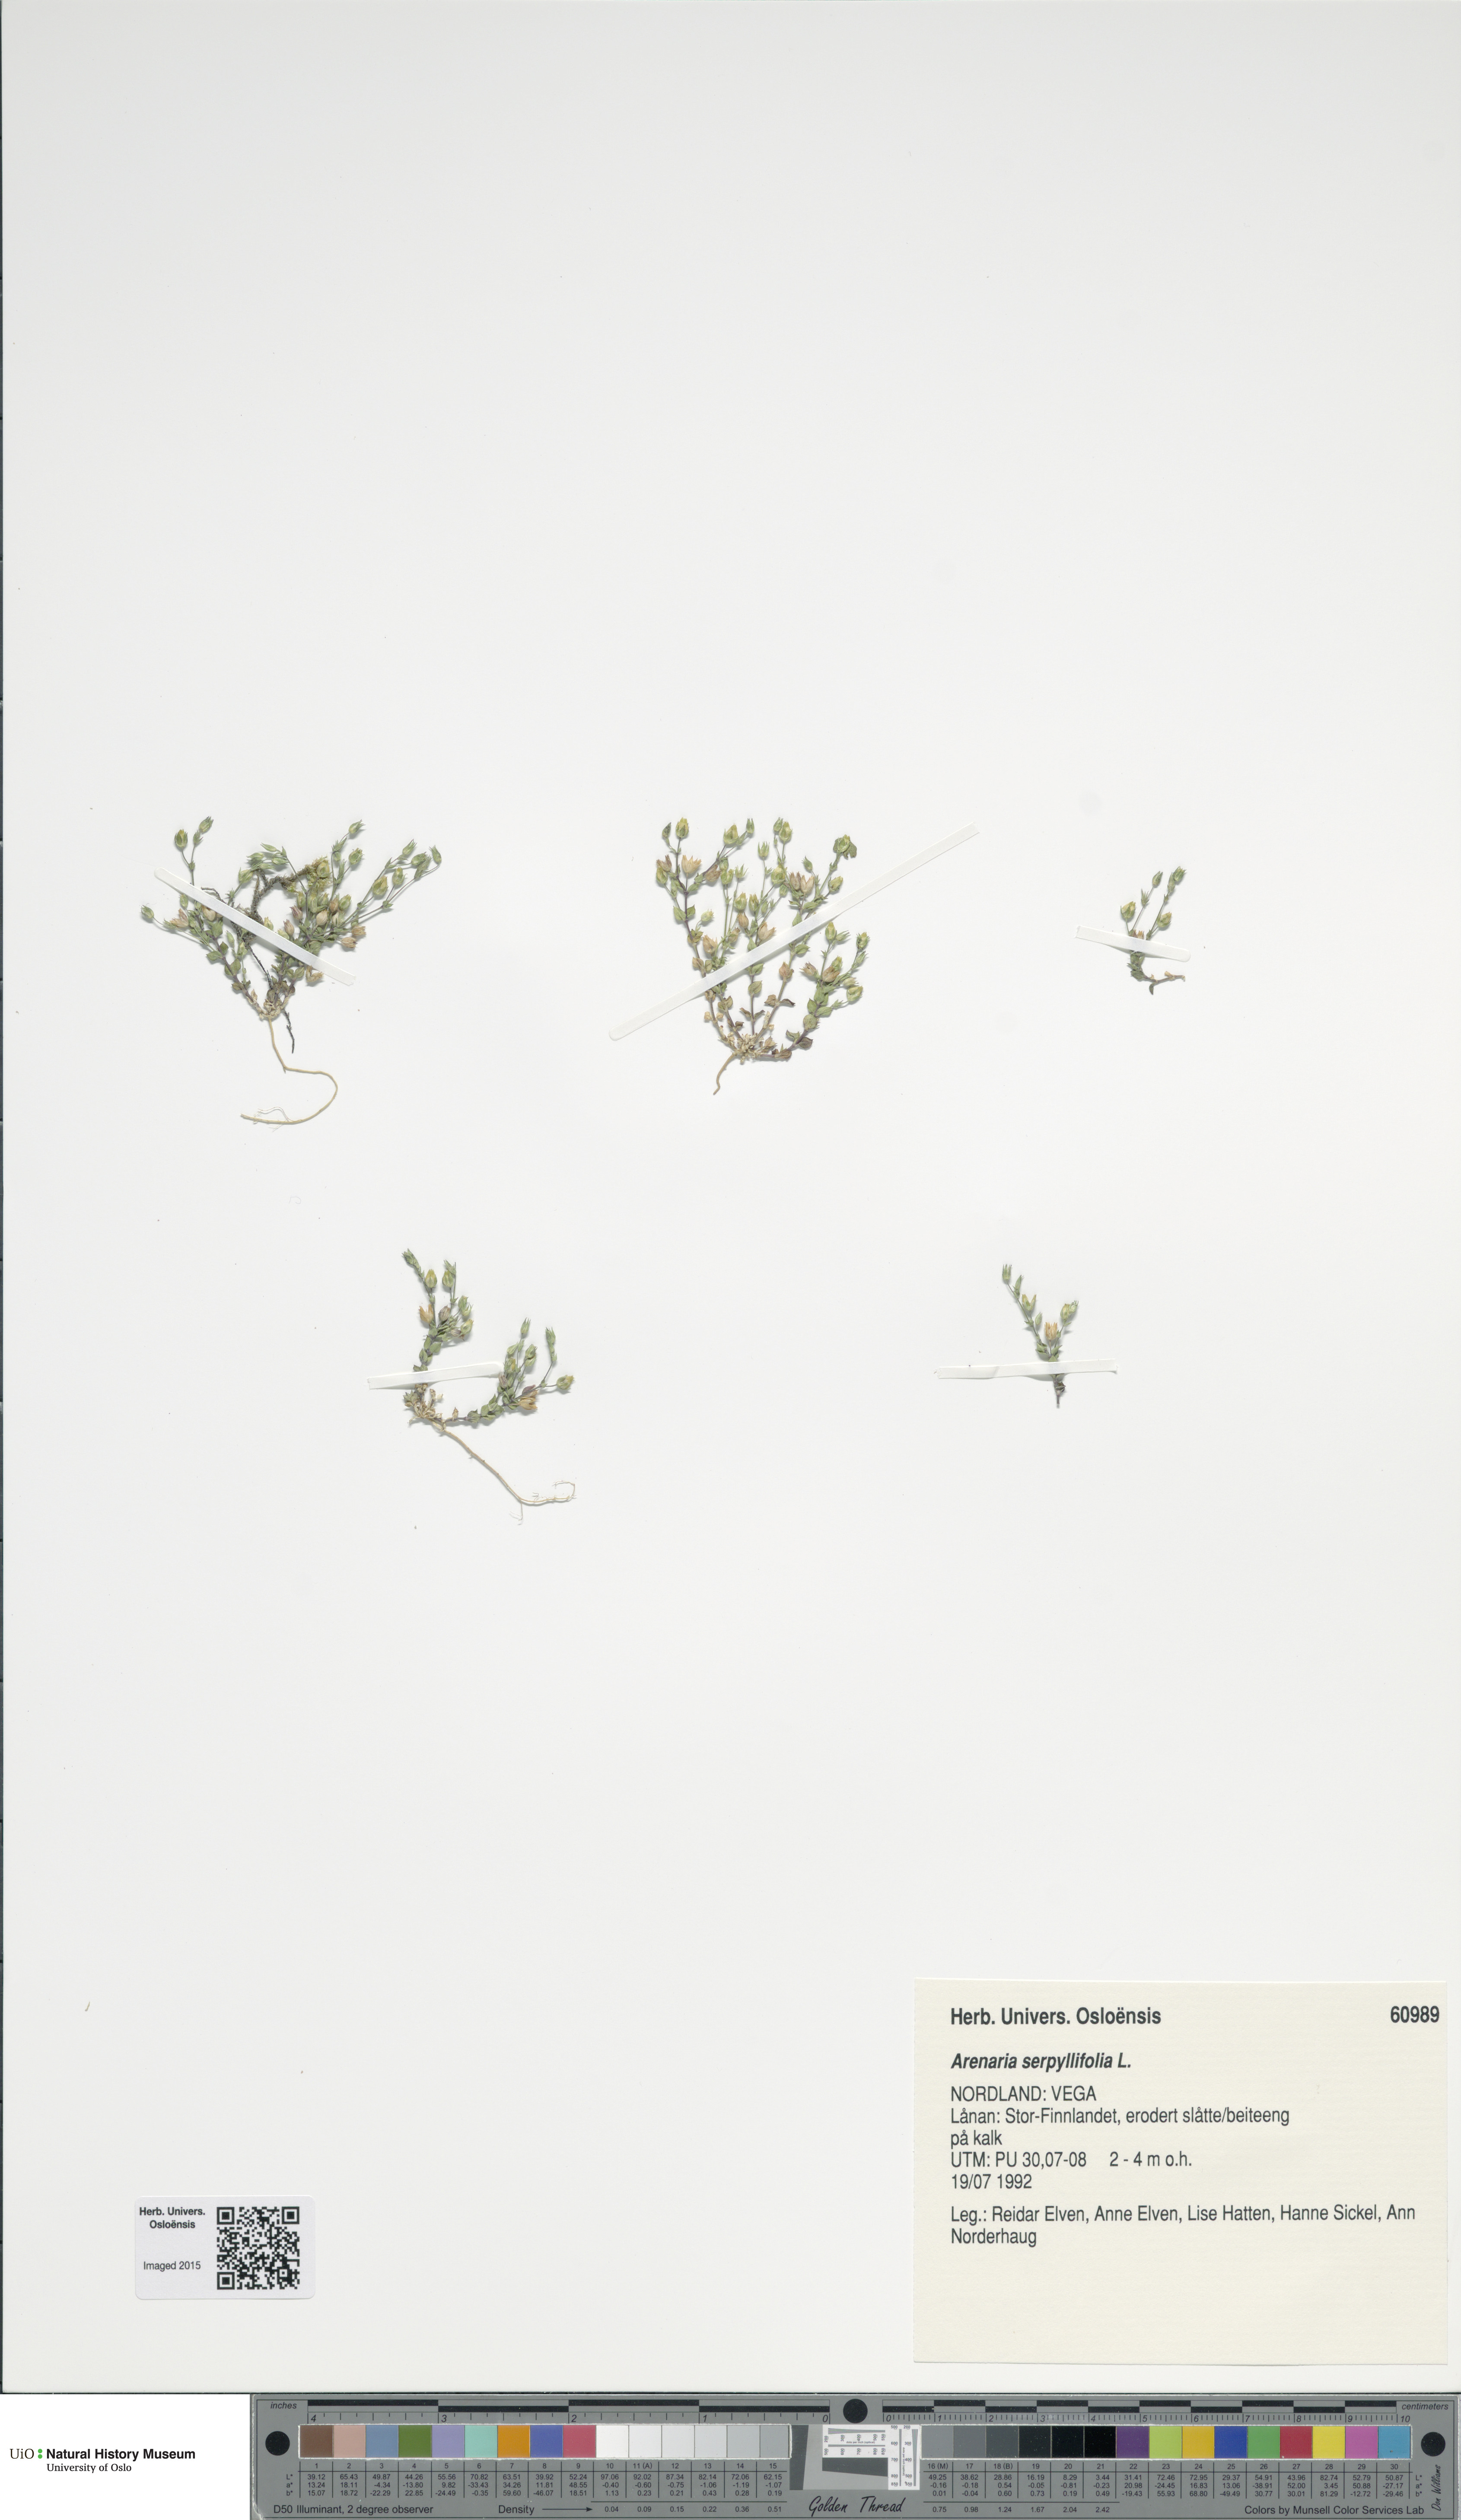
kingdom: Plantae
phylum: Tracheophyta
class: Magnoliopsida
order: Caryophyllales
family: Caryophyllaceae
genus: Arenaria
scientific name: Arenaria serpyllifolia
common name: Thyme-leaved sandwort
